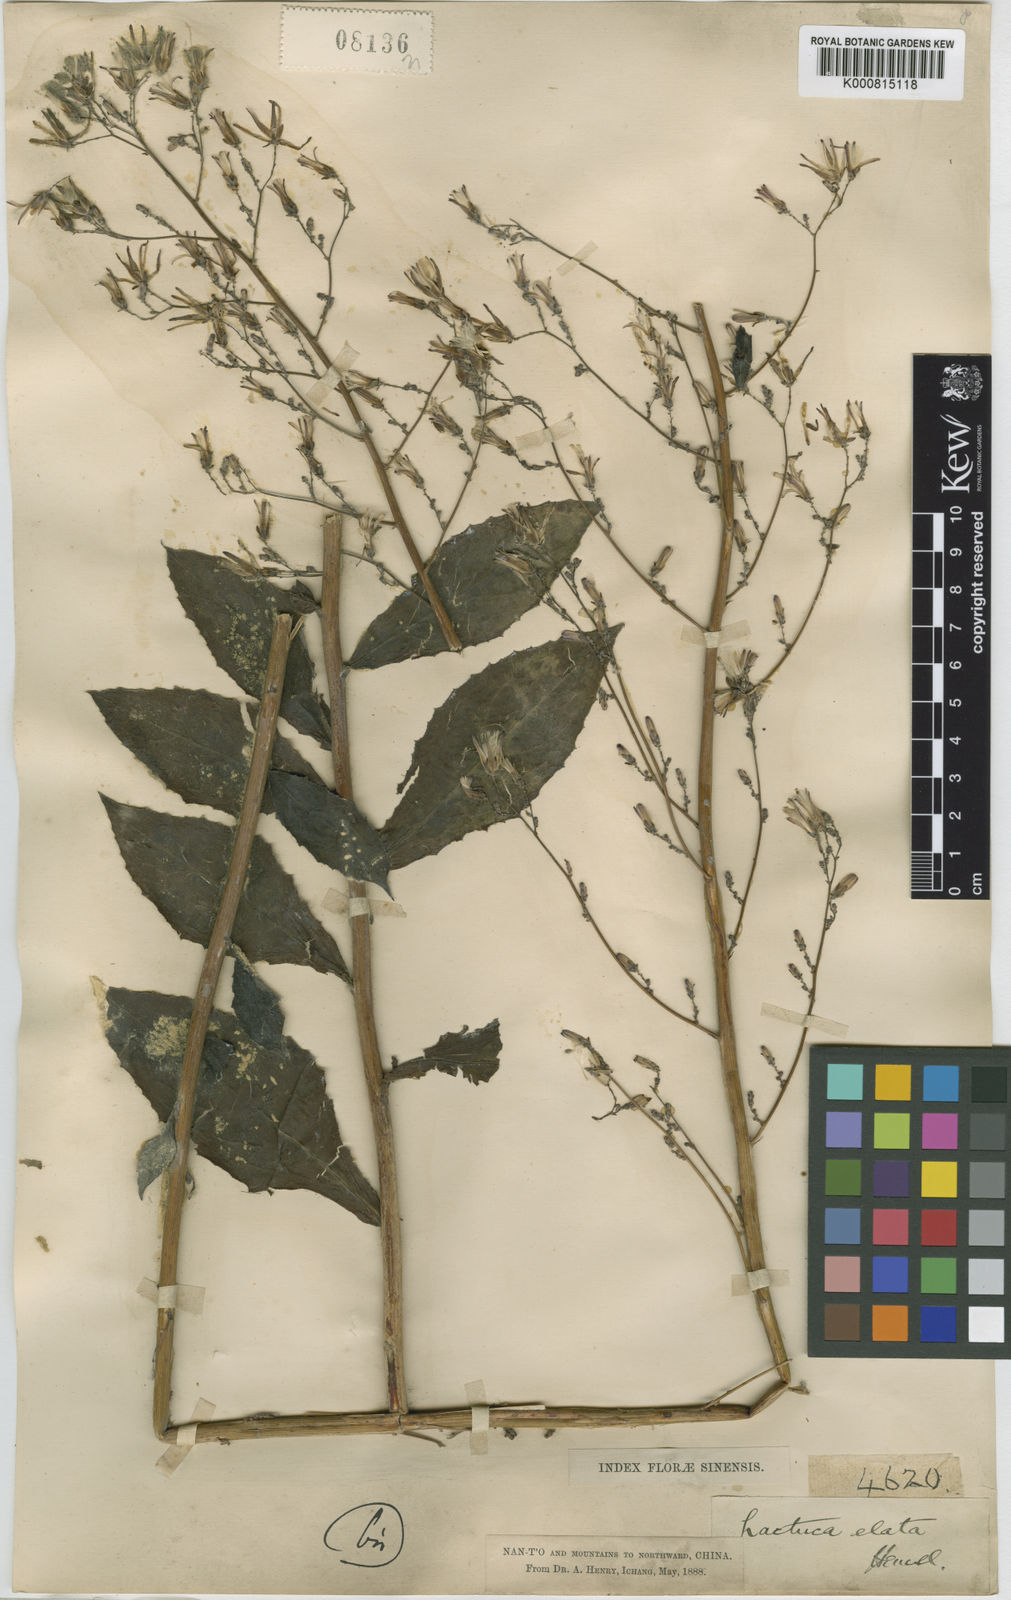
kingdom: Plantae
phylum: Tracheophyta
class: Magnoliopsida
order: Asterales
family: Asteraceae
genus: Lactuca
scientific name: Lactuca raddeana
